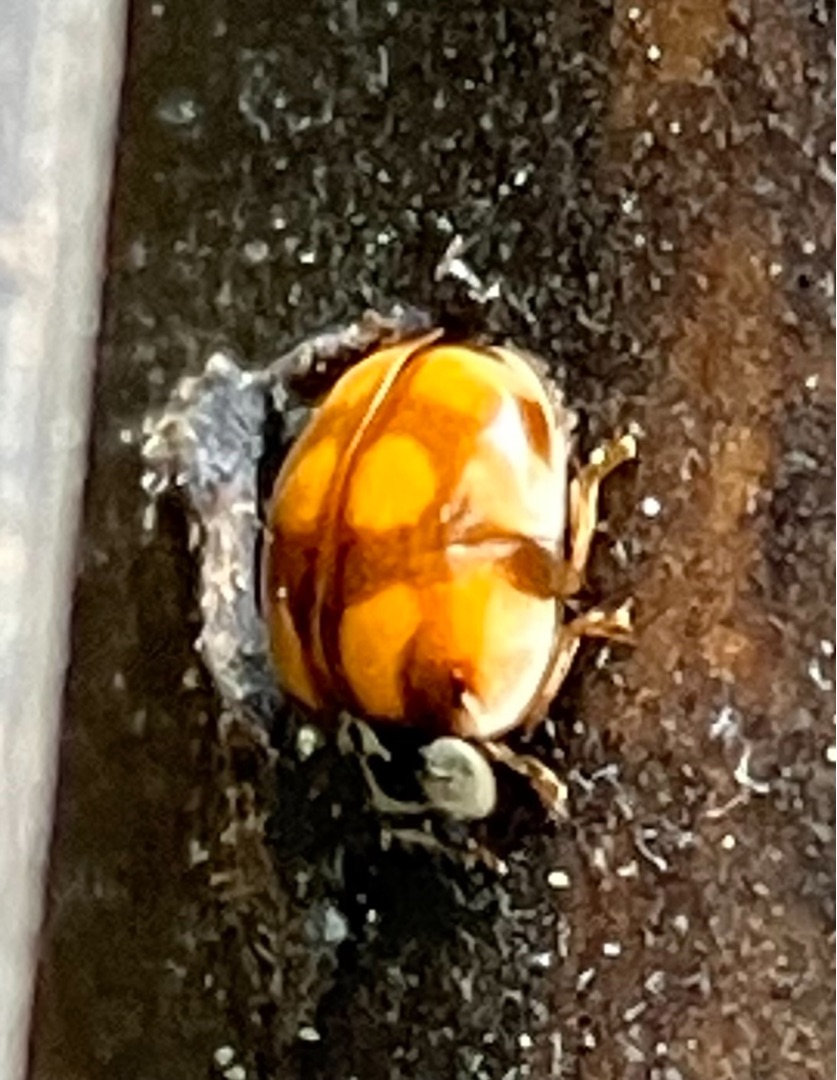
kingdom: Animalia
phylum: Arthropoda
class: Insecta
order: Coleoptera
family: Coccinellidae
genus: Adalia
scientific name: Adalia decempunctata
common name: Tiplettet mariehøne
